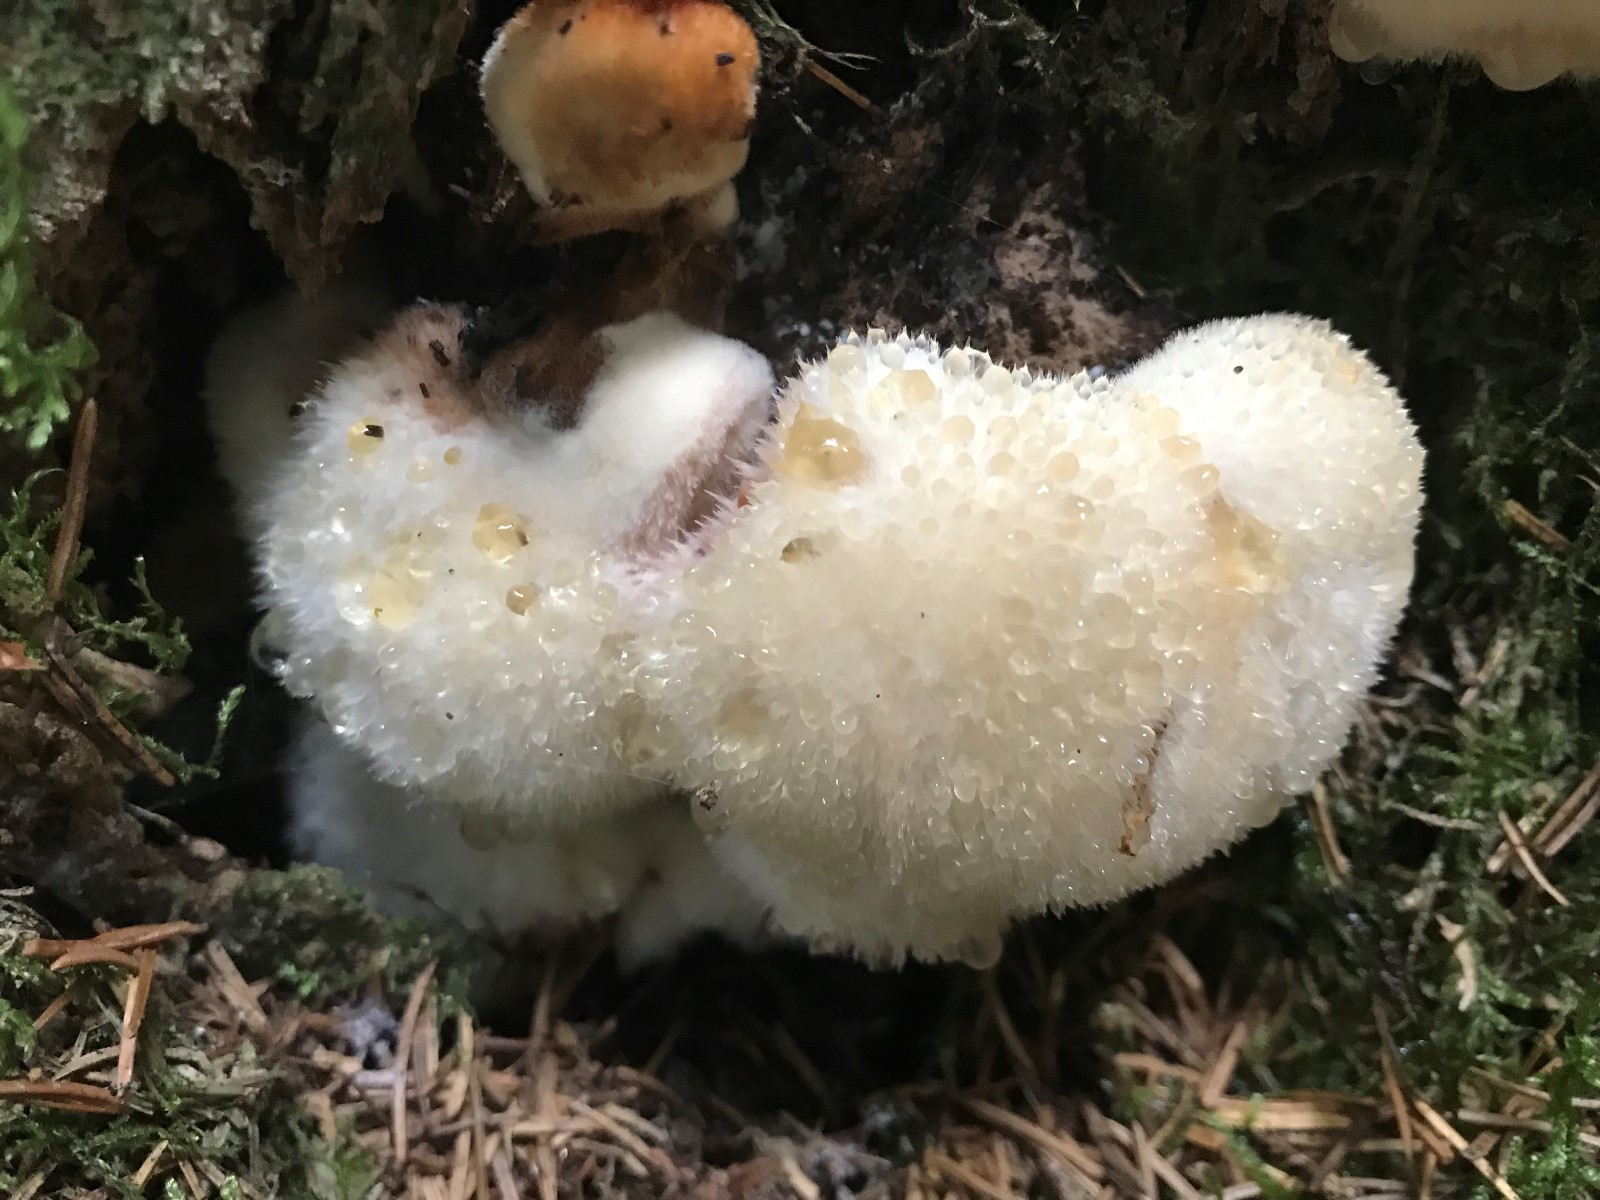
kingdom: Fungi
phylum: Basidiomycota
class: Agaricomycetes
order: Polyporales
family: Dacryobolaceae
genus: Postia
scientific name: Postia ptychogaster
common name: støvende kødporesvamp
